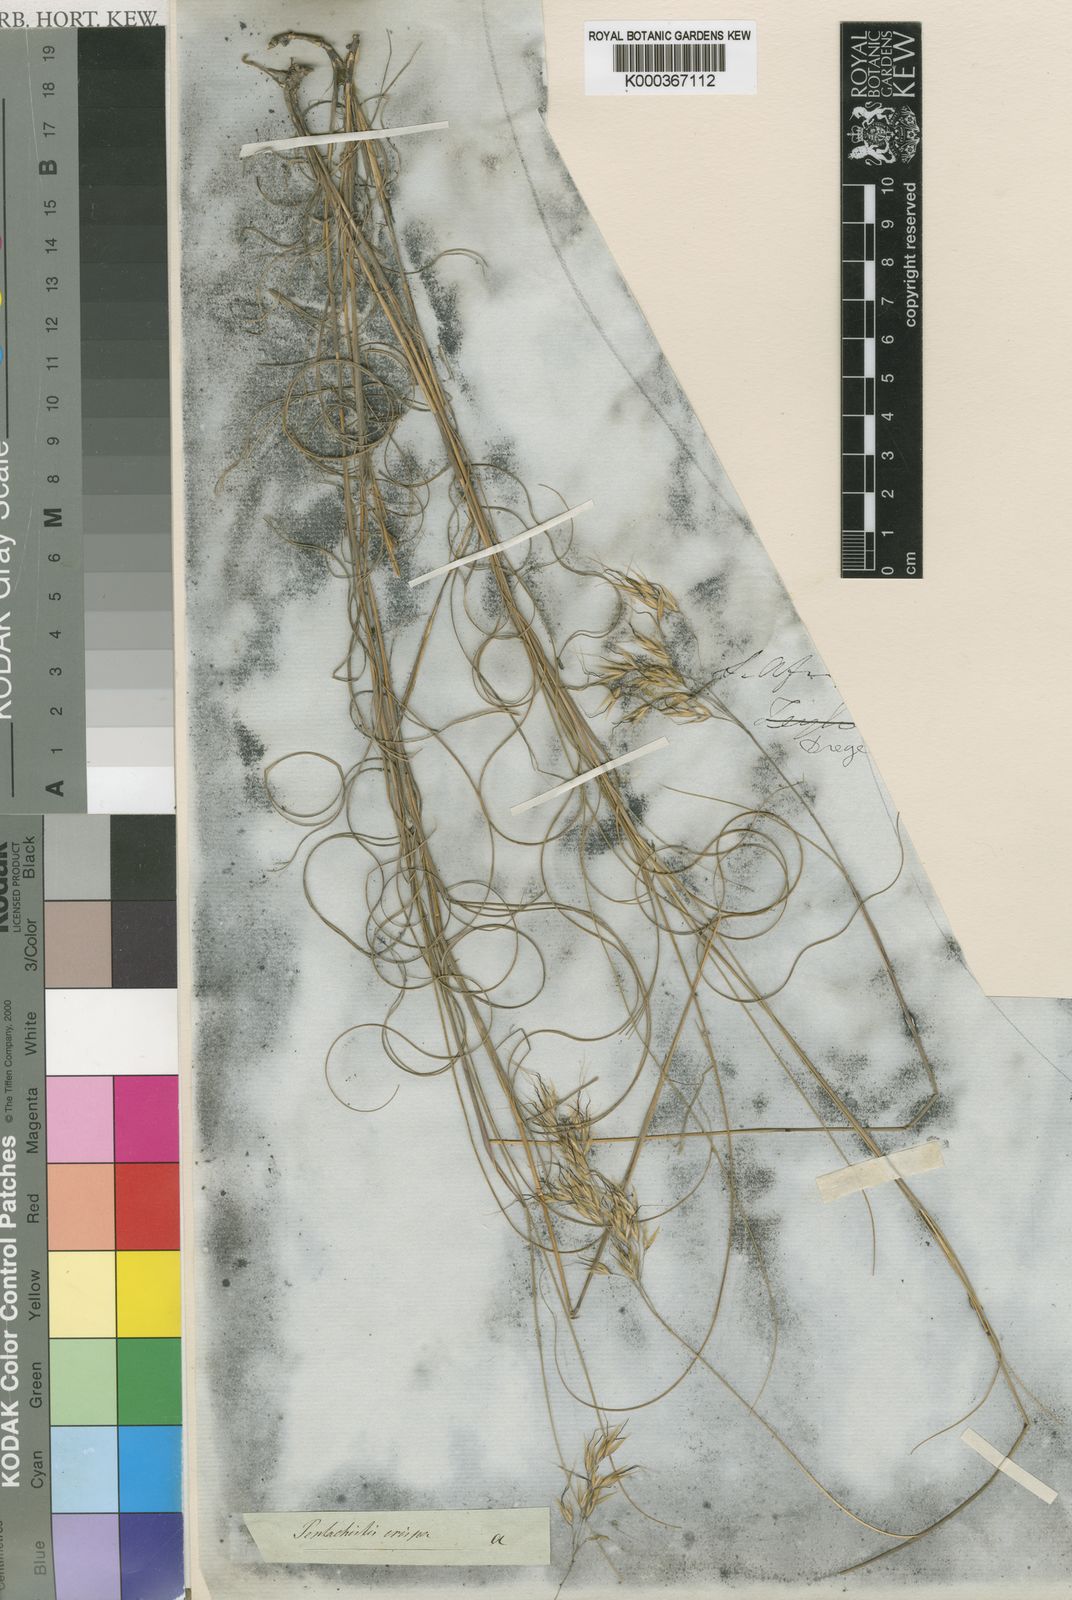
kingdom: Plantae
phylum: Tracheophyta
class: Liliopsida
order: Poales
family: Poaceae
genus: Pentameris
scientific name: Pentameris colorata
